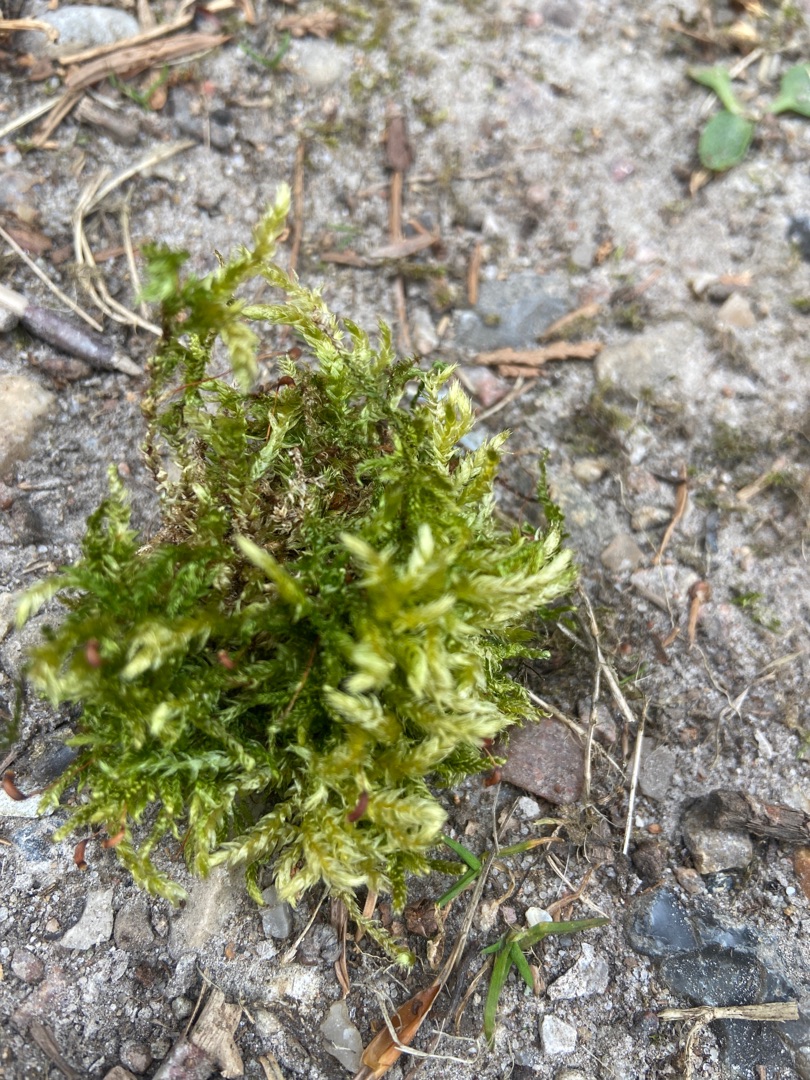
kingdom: Plantae
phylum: Bryophyta
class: Bryopsida
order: Hypnales
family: Brachytheciaceae
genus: Brachythecium
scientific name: Brachythecium rutabulum
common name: Almindelig kortkapsel
